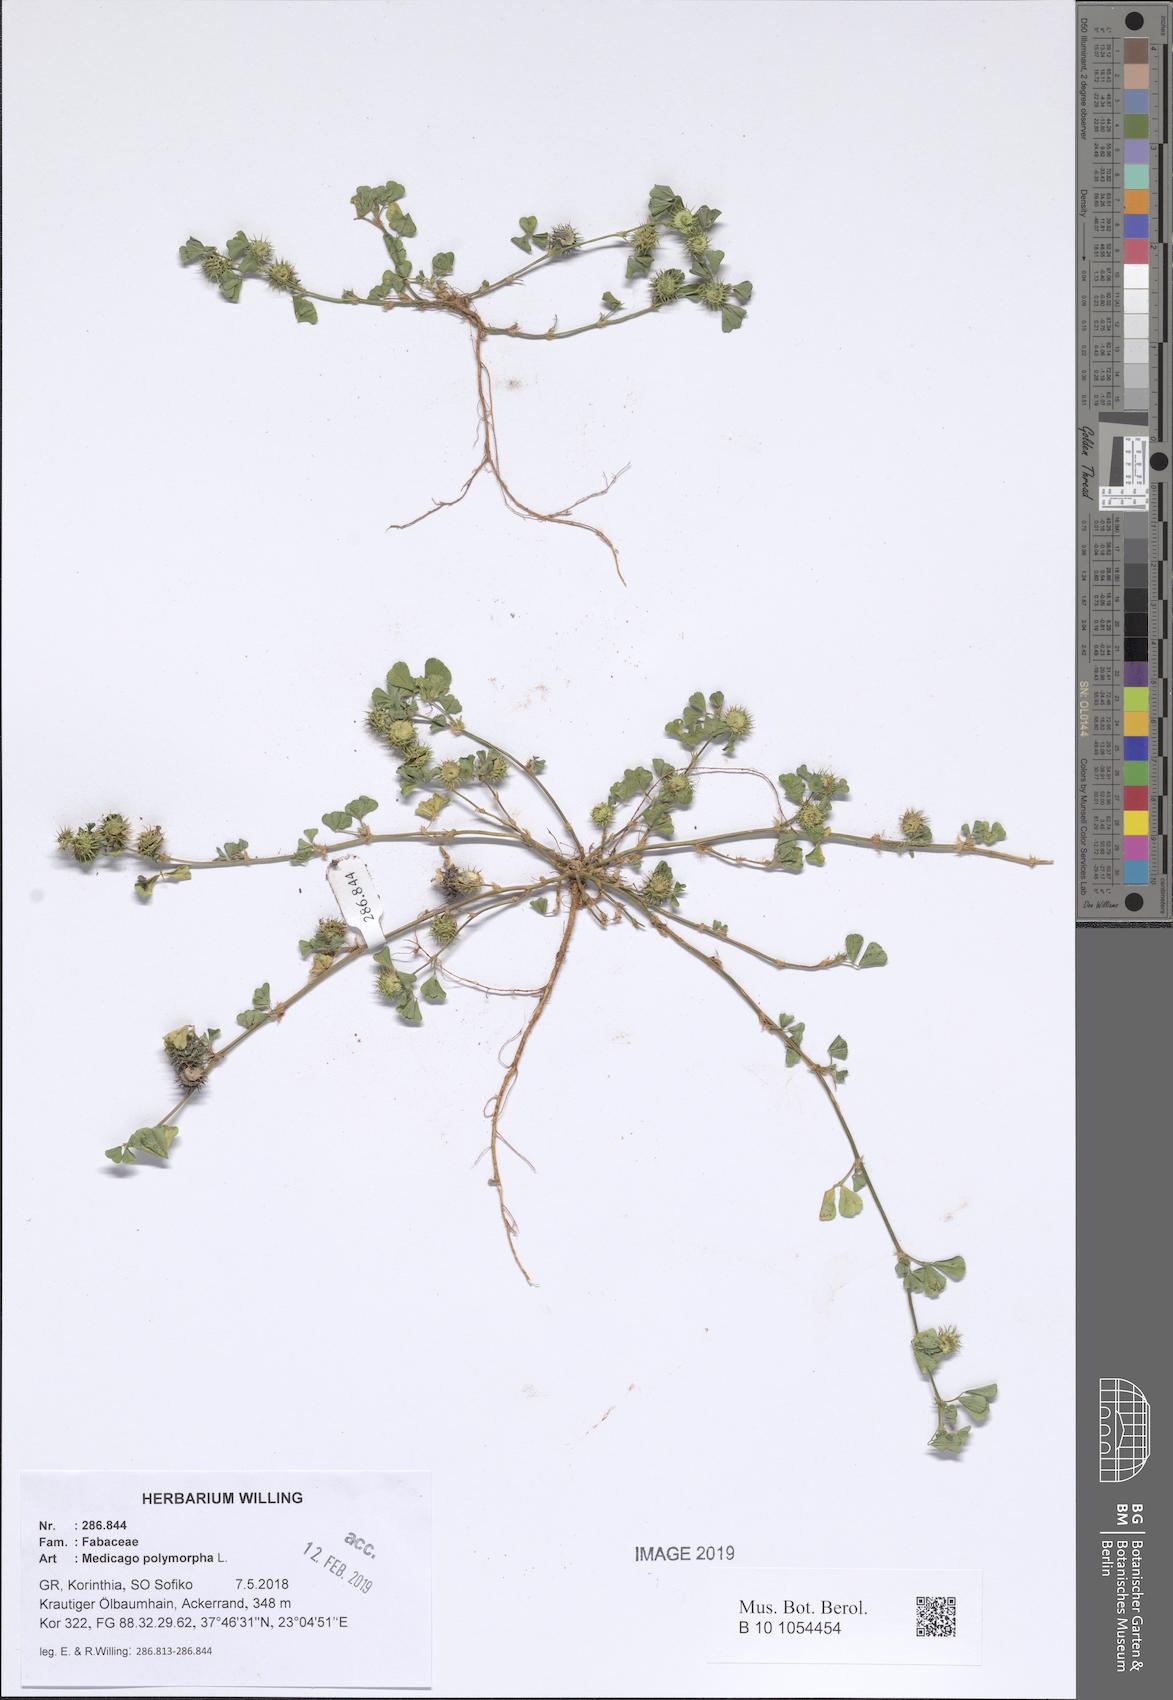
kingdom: Plantae
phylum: Tracheophyta
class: Magnoliopsida
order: Fabales
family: Fabaceae
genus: Medicago
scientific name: Medicago polymorpha
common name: Burclover
